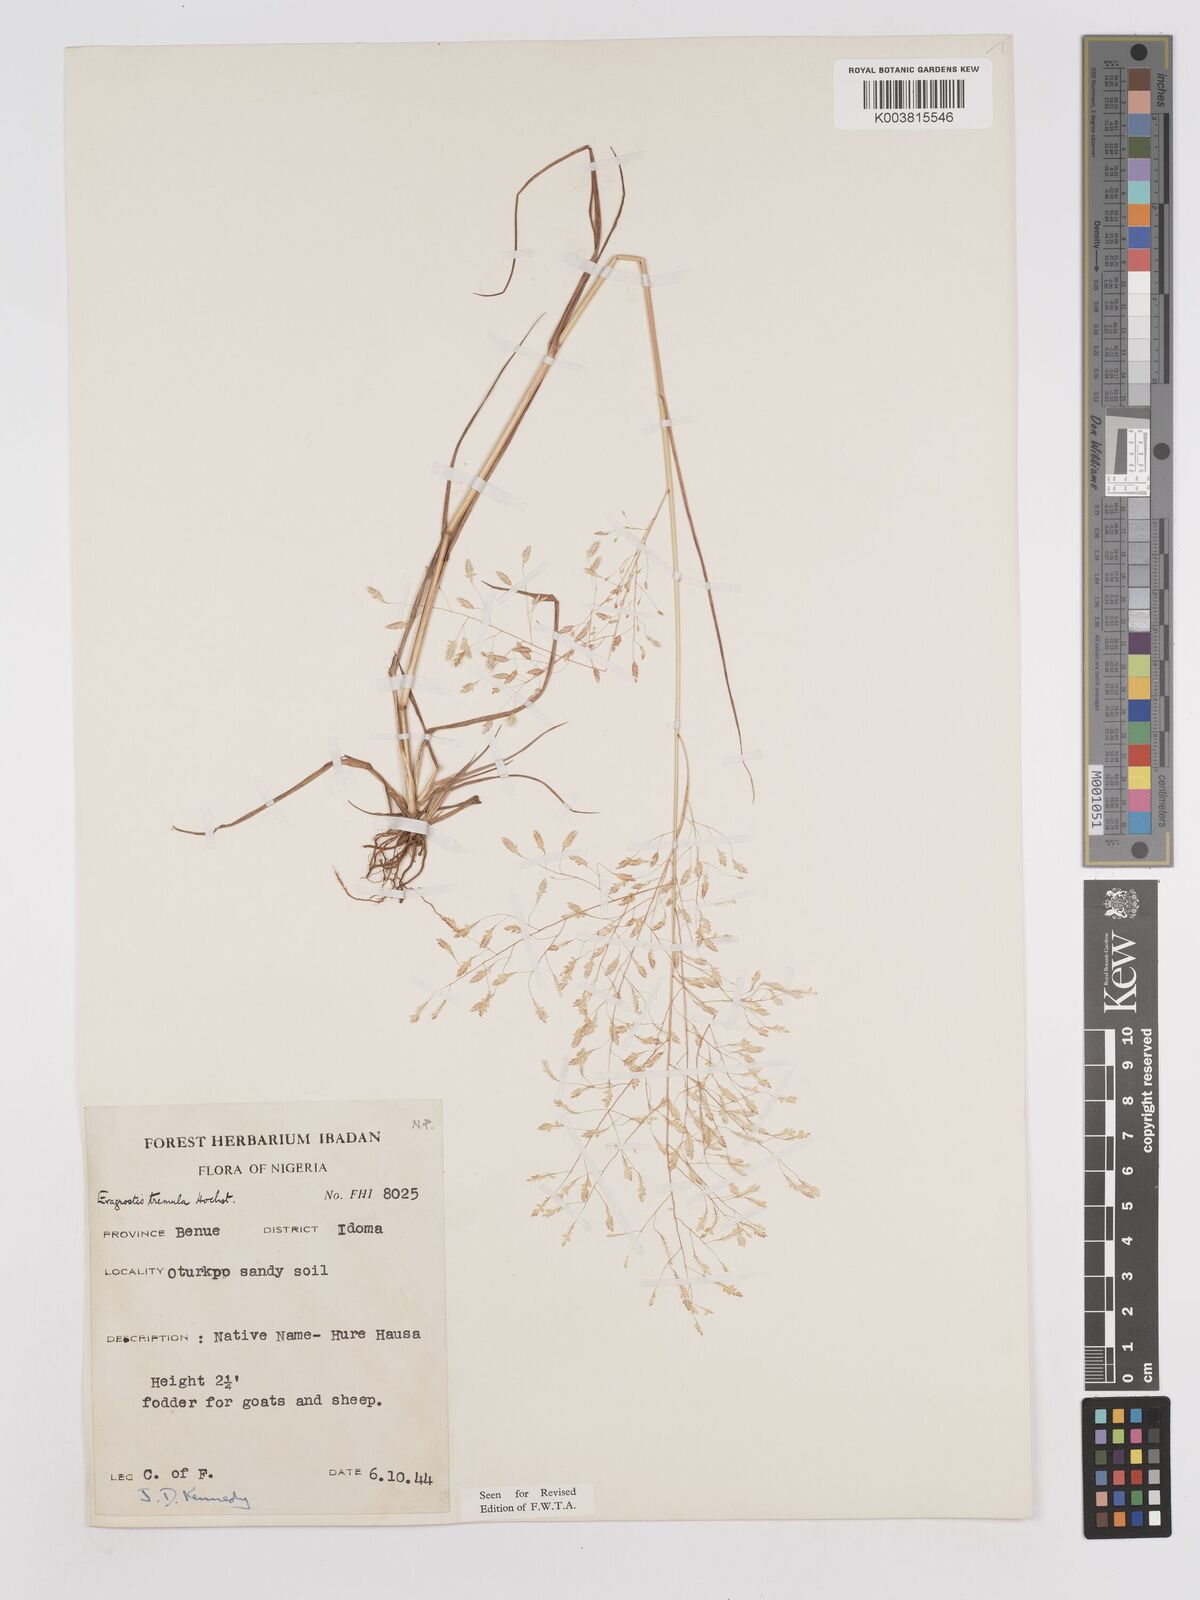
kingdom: Plantae
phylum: Tracheophyta
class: Liliopsida
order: Poales
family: Poaceae
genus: Eragrostis
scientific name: Eragrostis tremula
